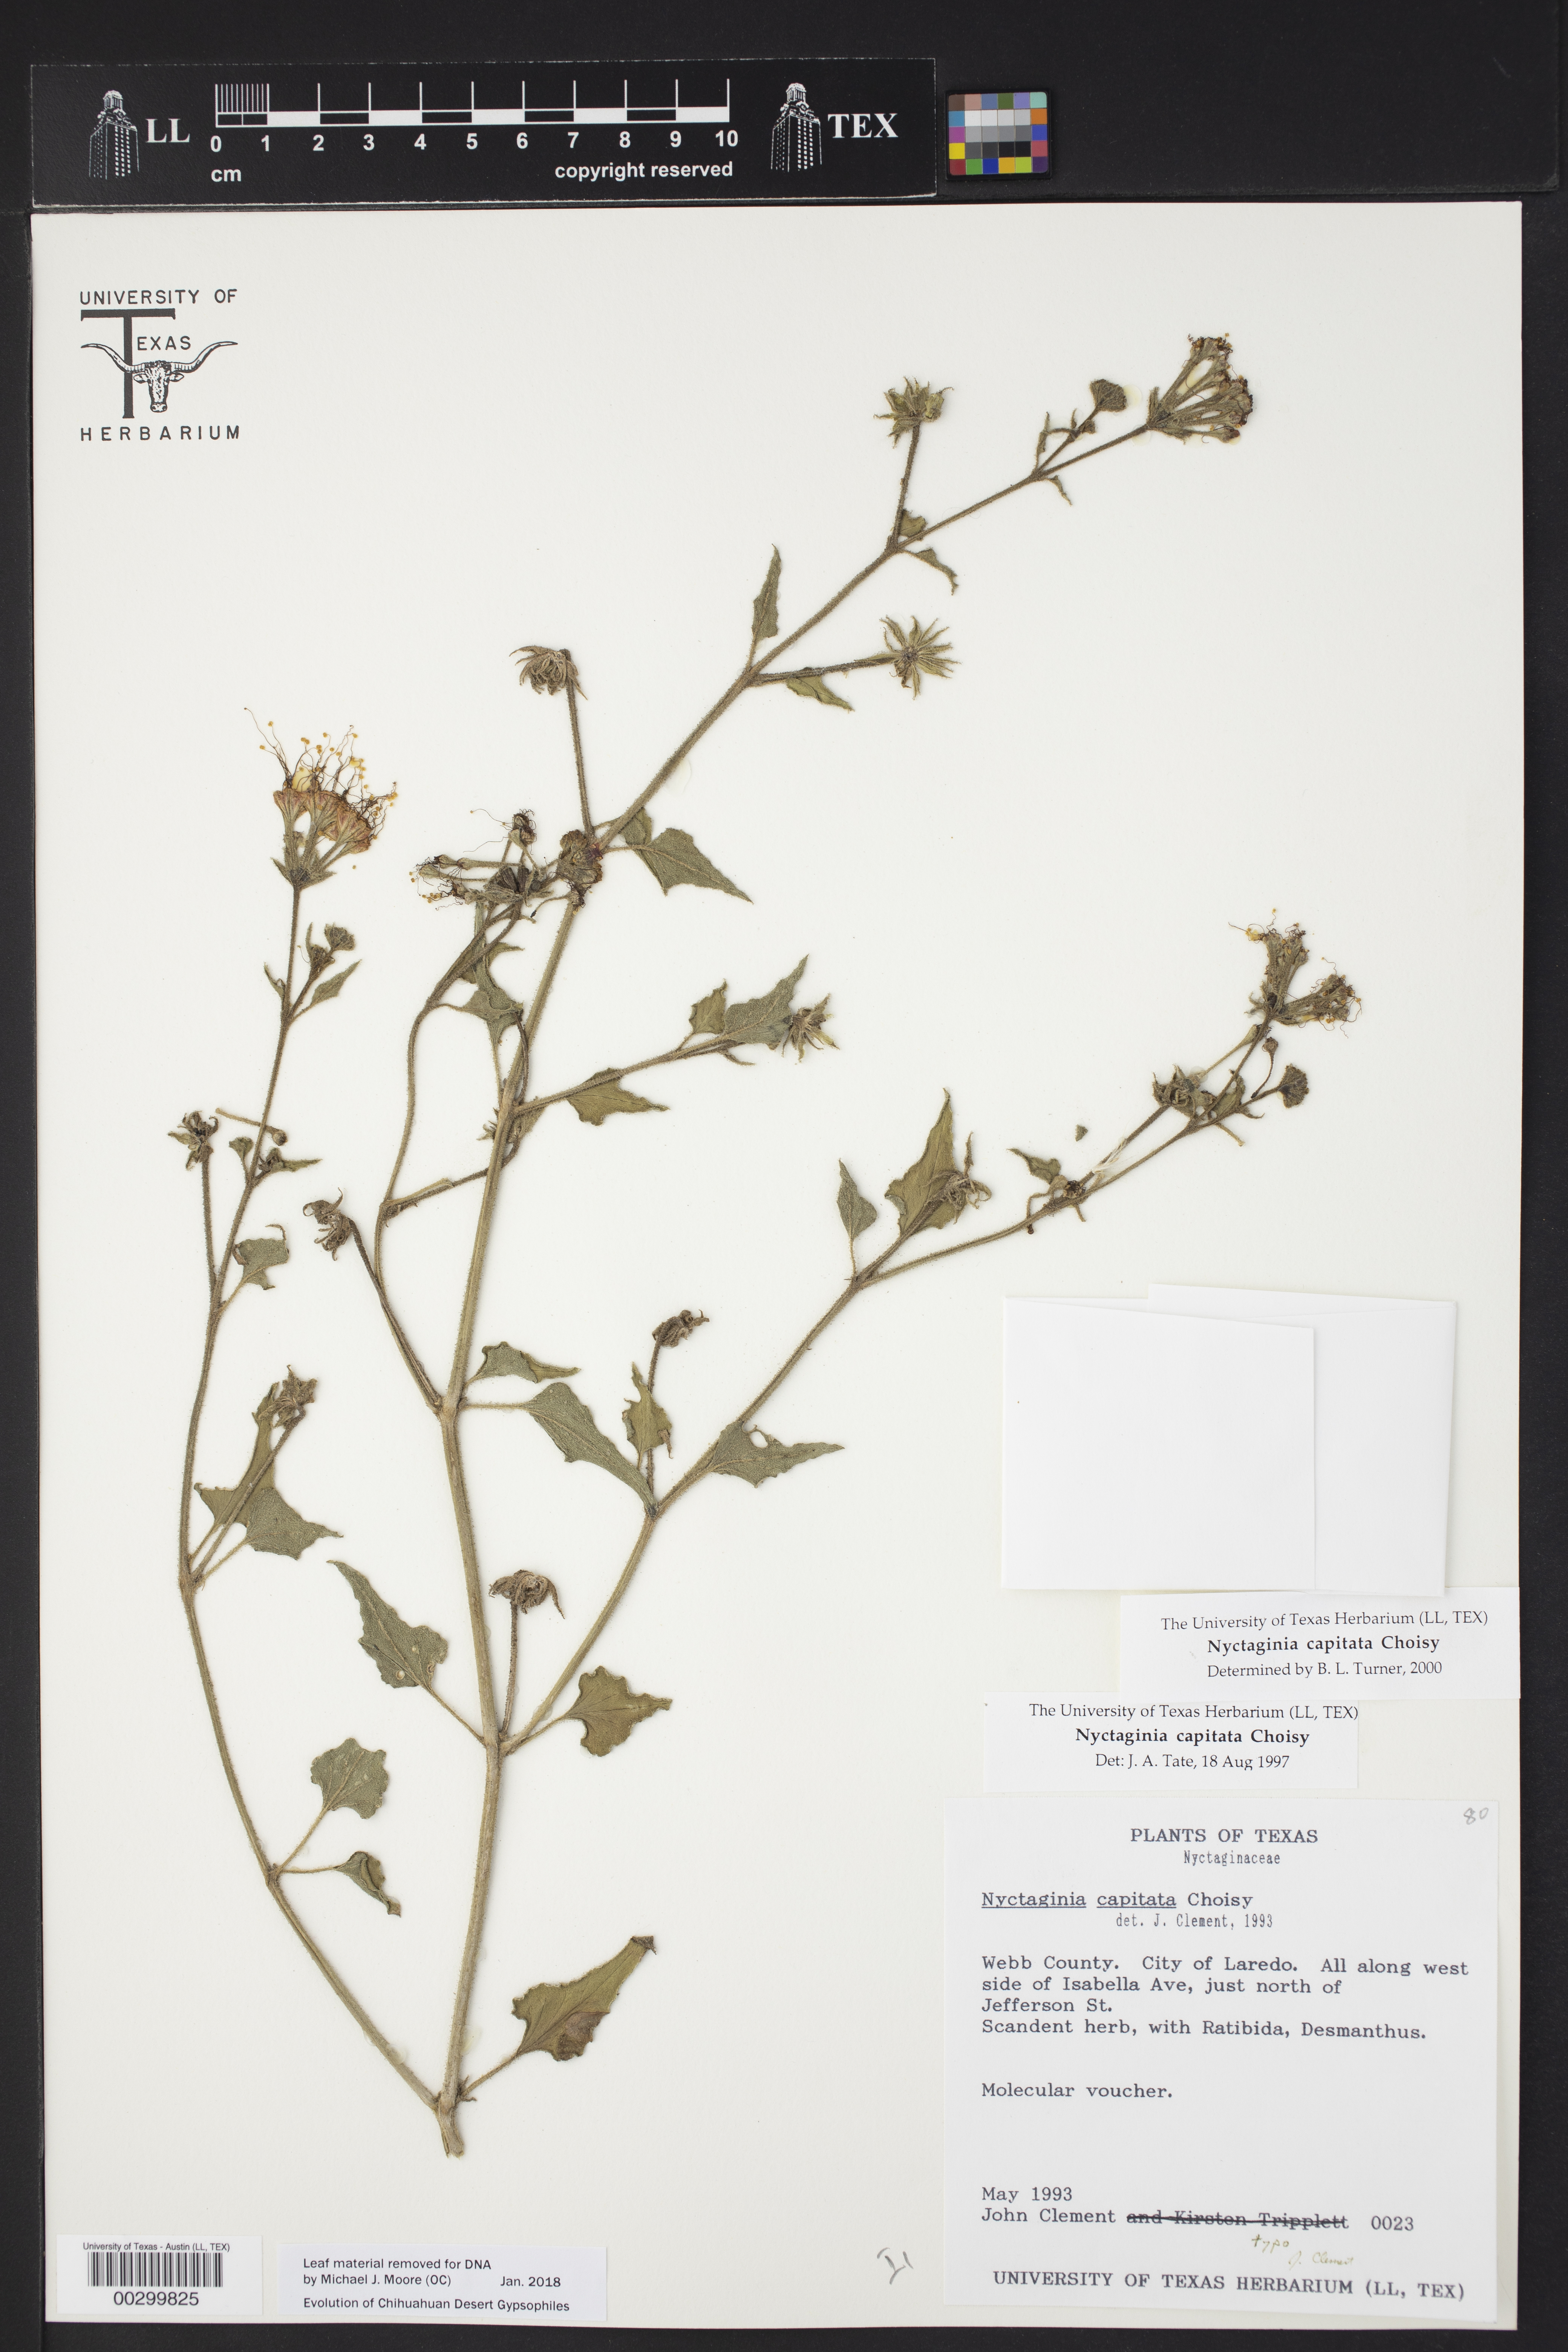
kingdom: Plantae
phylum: Tracheophyta
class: Magnoliopsida
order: Caryophyllales
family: Nyctaginaceae
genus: Nyctaginia
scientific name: Nyctaginia capitata
